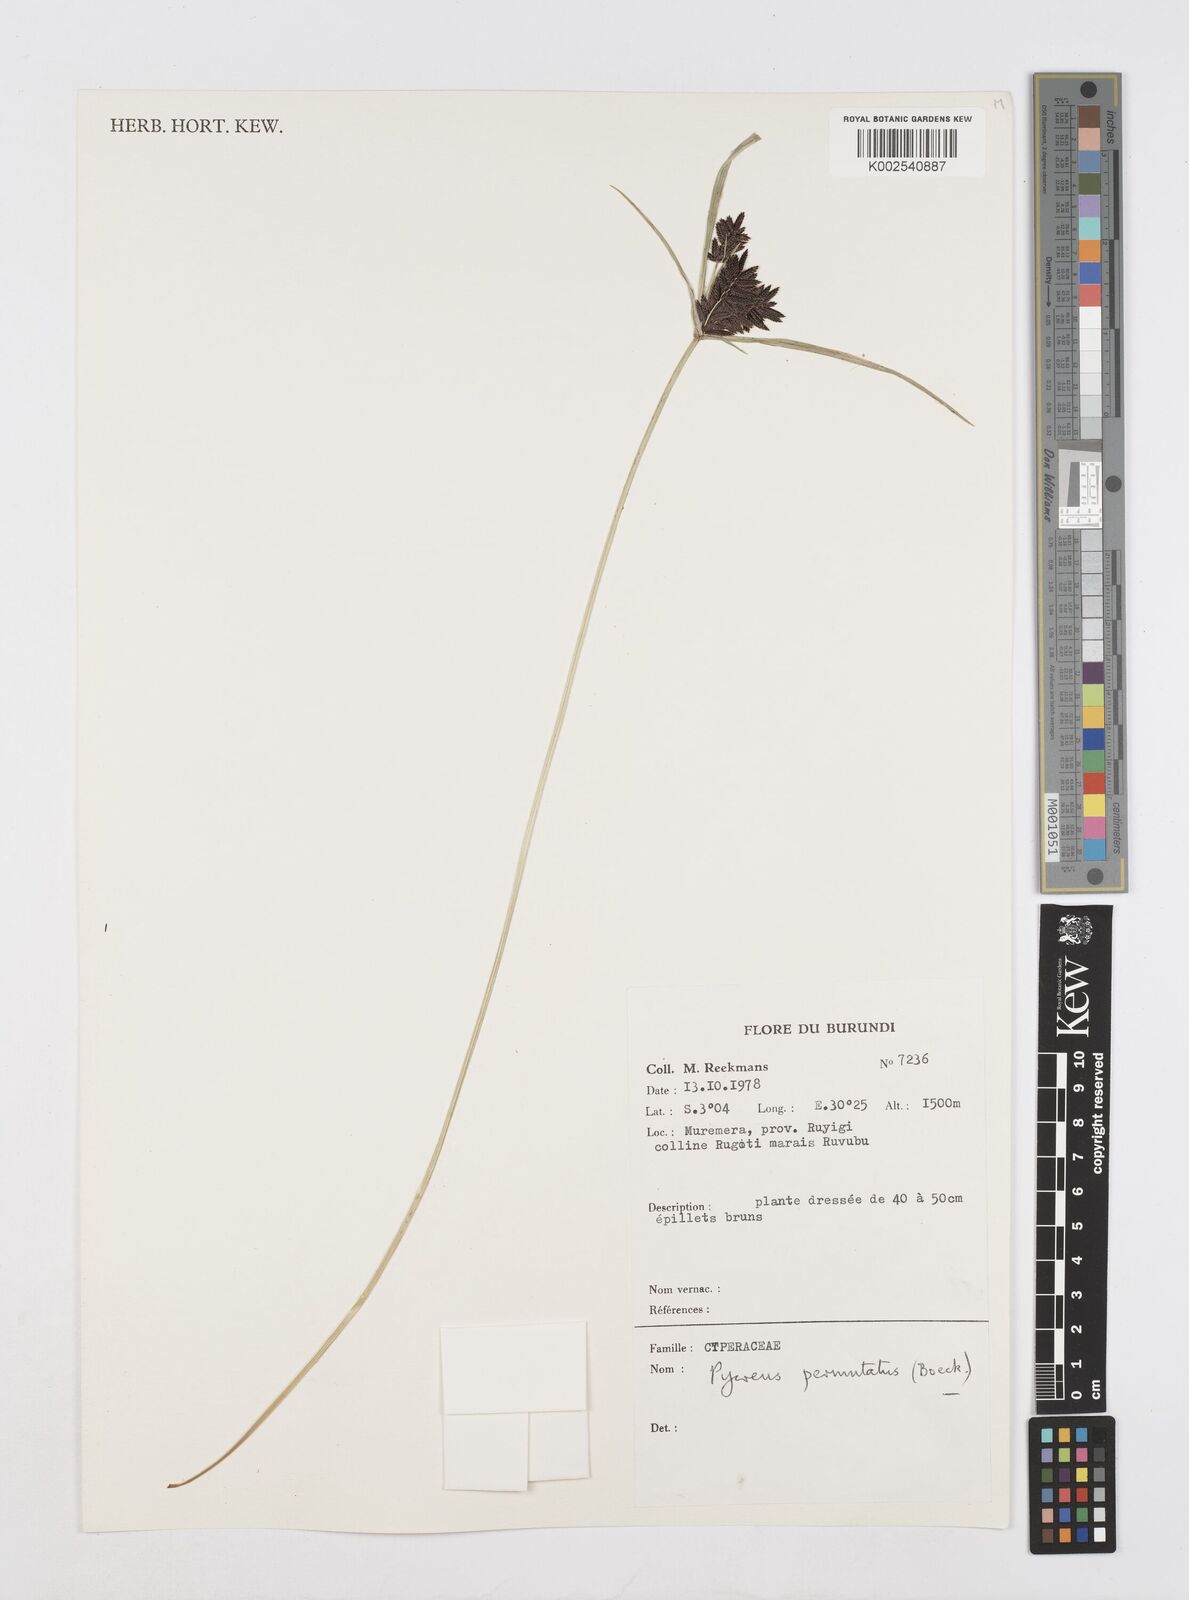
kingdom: Plantae
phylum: Tracheophyta
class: Liliopsida
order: Poales
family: Cyperaceae
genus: Cyperus
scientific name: Cyperus nigricans
